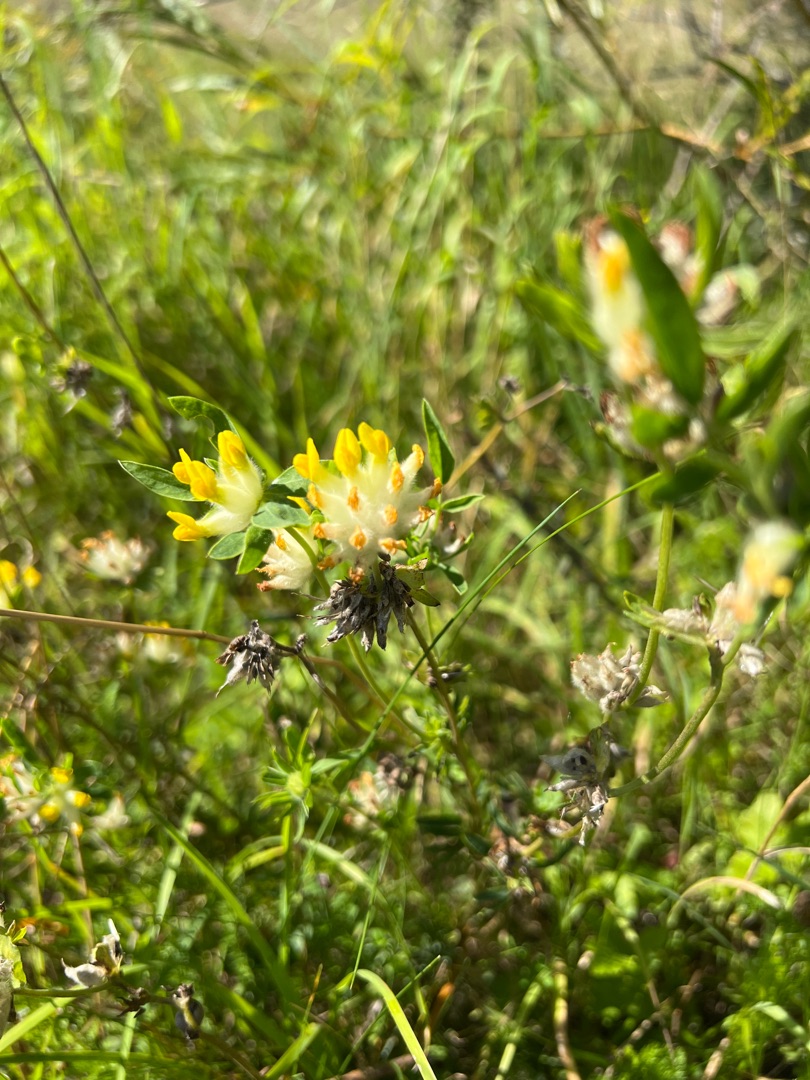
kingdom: Plantae
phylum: Tracheophyta
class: Magnoliopsida
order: Fabales
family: Fabaceae
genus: Anthyllis
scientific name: Anthyllis vulneraria
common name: Rundbælg
